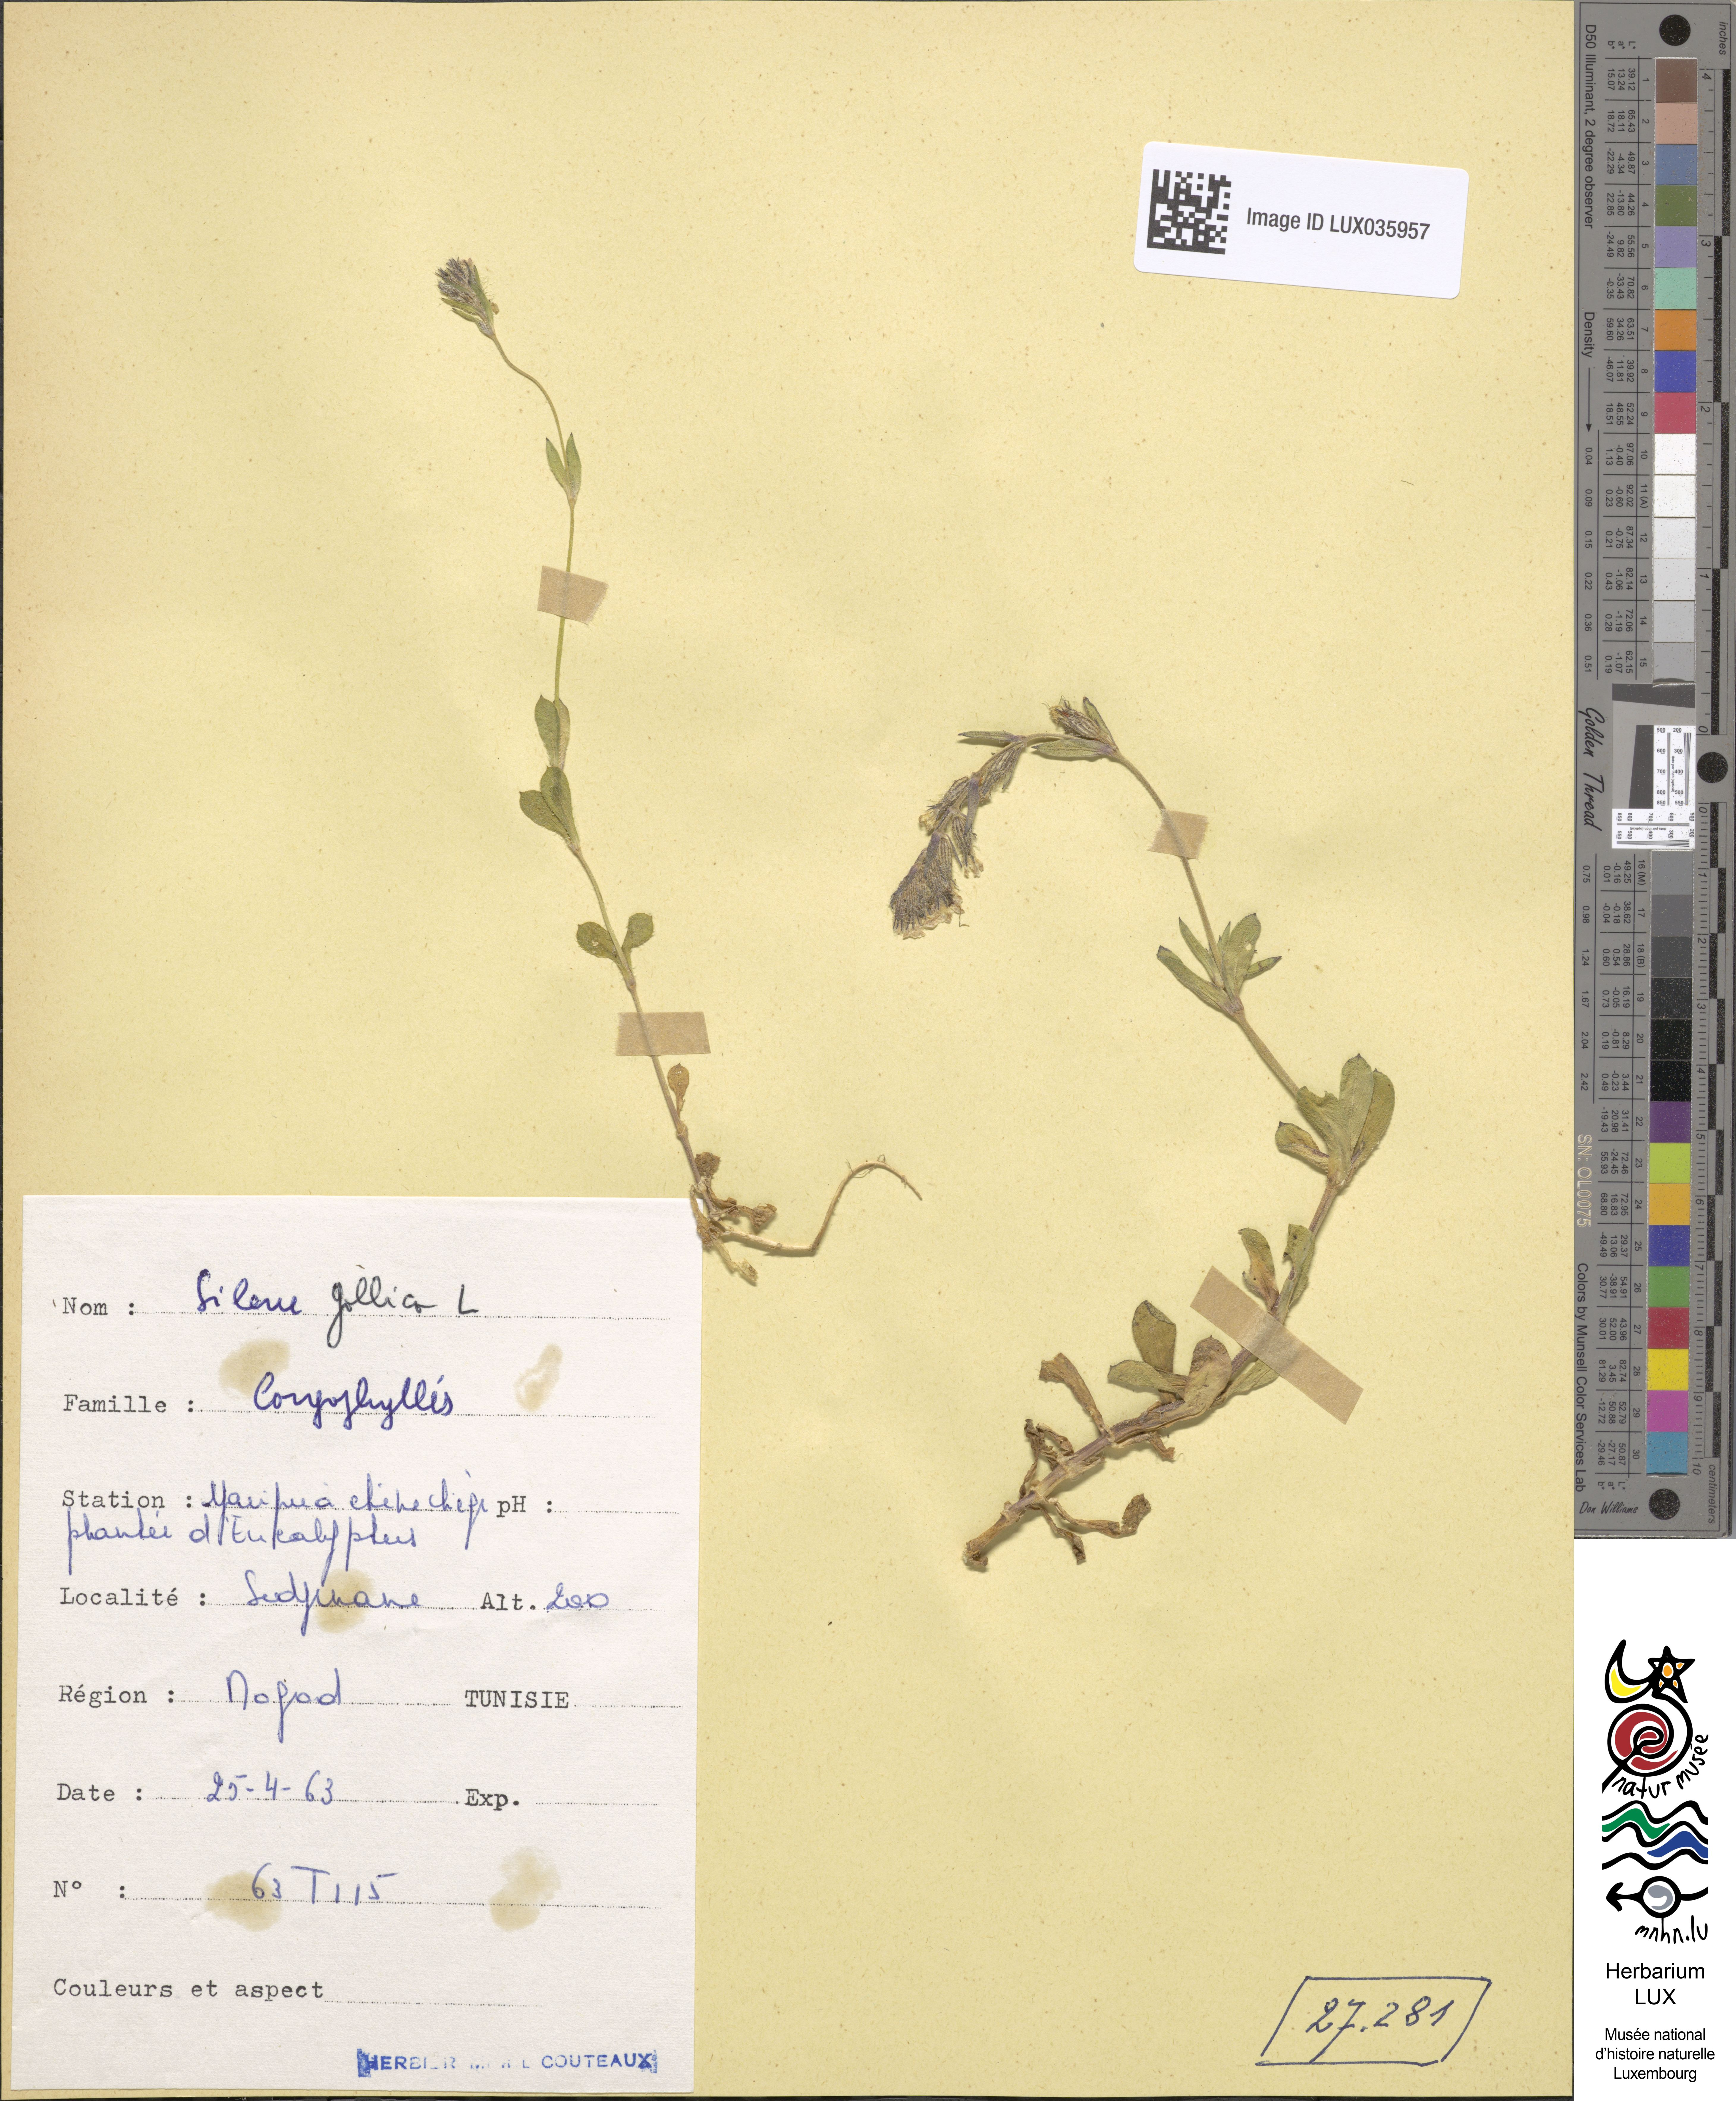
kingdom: Plantae
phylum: Tracheophyta
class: Magnoliopsida
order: Caryophyllales
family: Caryophyllaceae
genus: Silene
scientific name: Silene gallica
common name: Small-flowered catchfly
